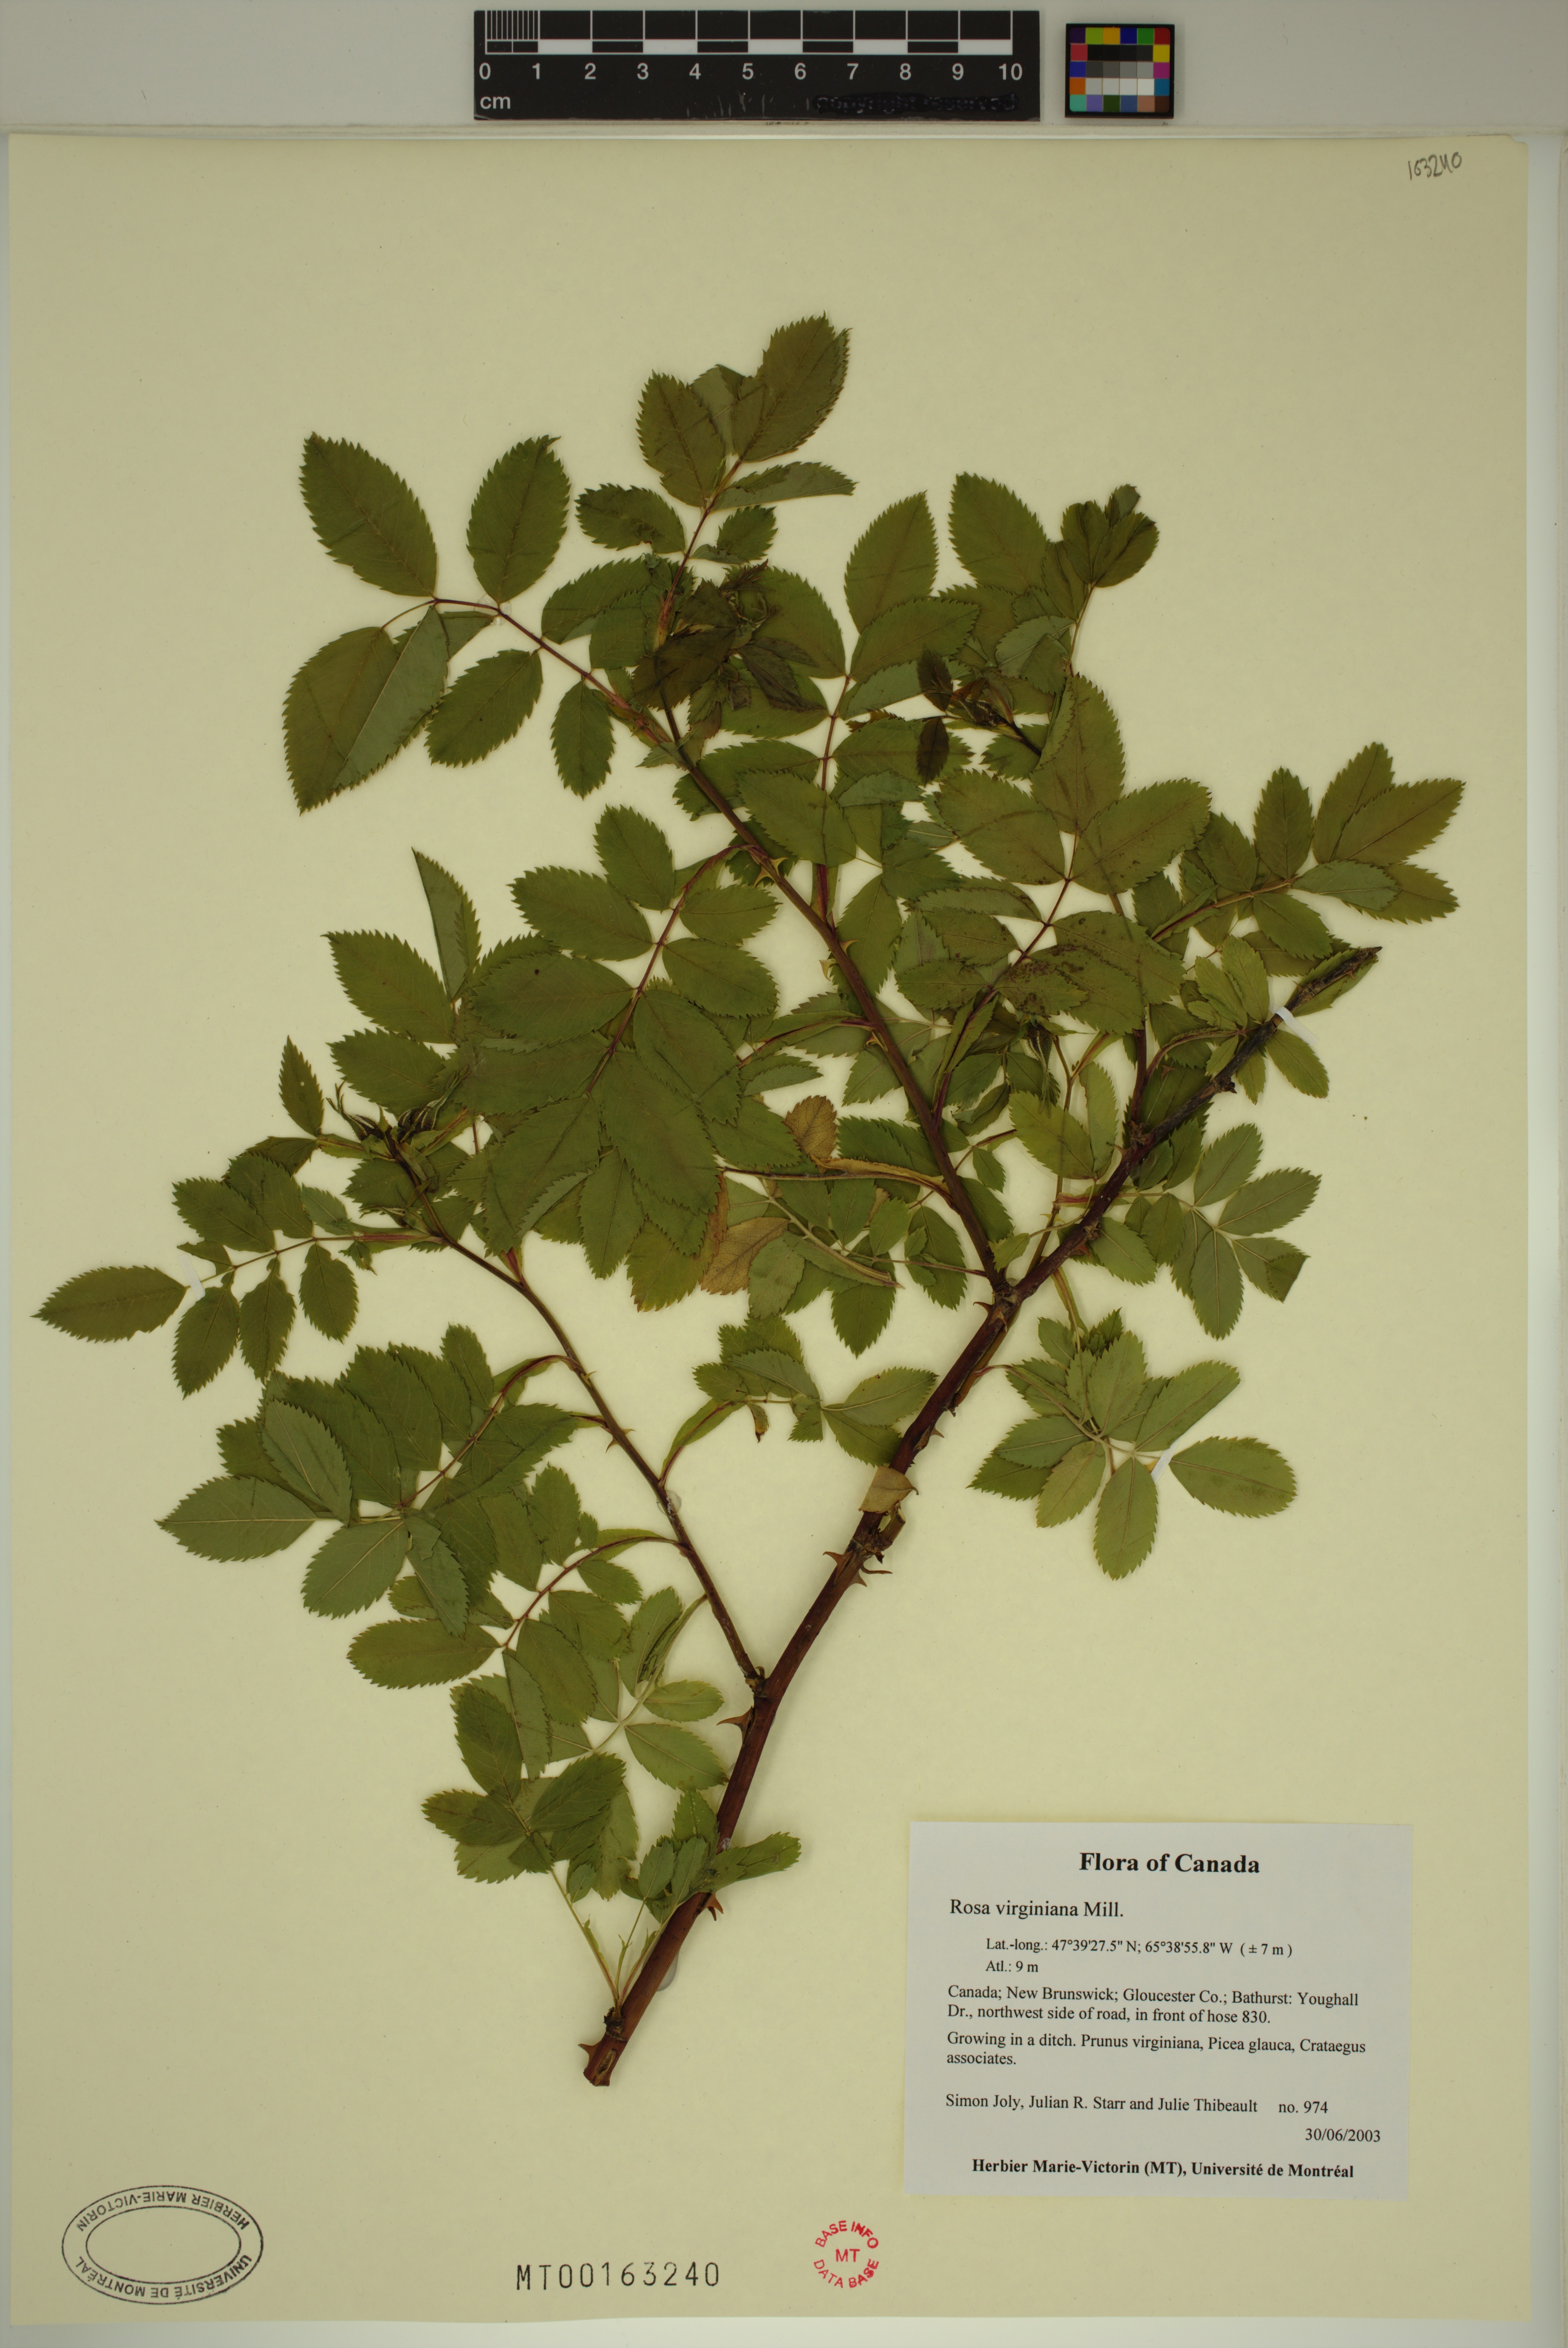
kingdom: Plantae
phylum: Tracheophyta
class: Magnoliopsida
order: Rosales
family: Rosaceae
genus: Rosa
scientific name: Rosa carolina
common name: Pasture rose
